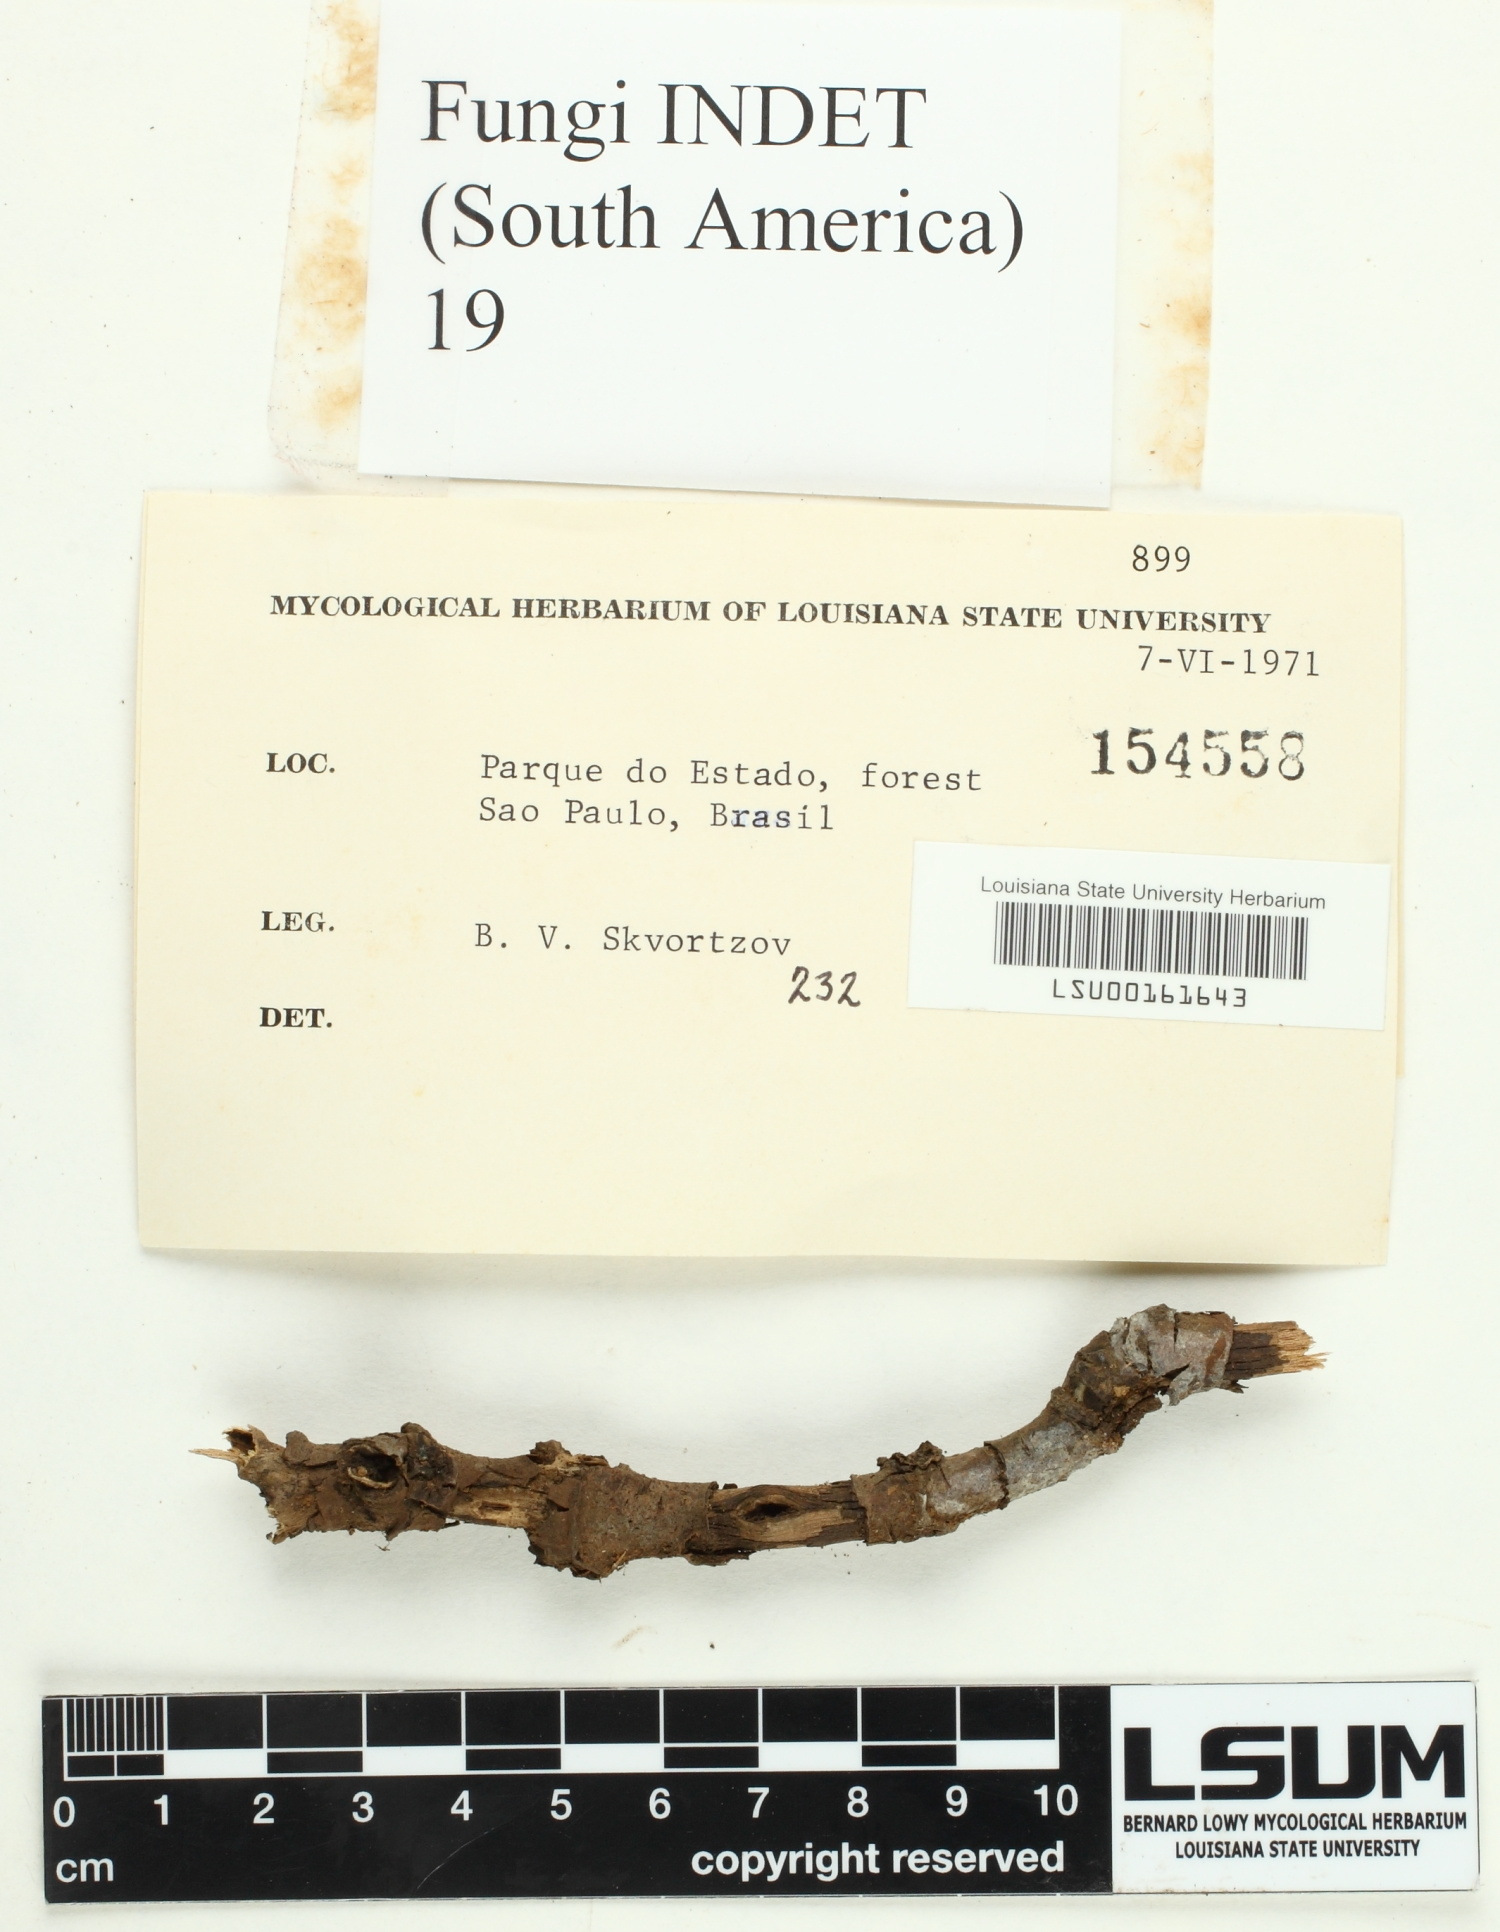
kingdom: Fungi
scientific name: Fungi
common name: Fungi
